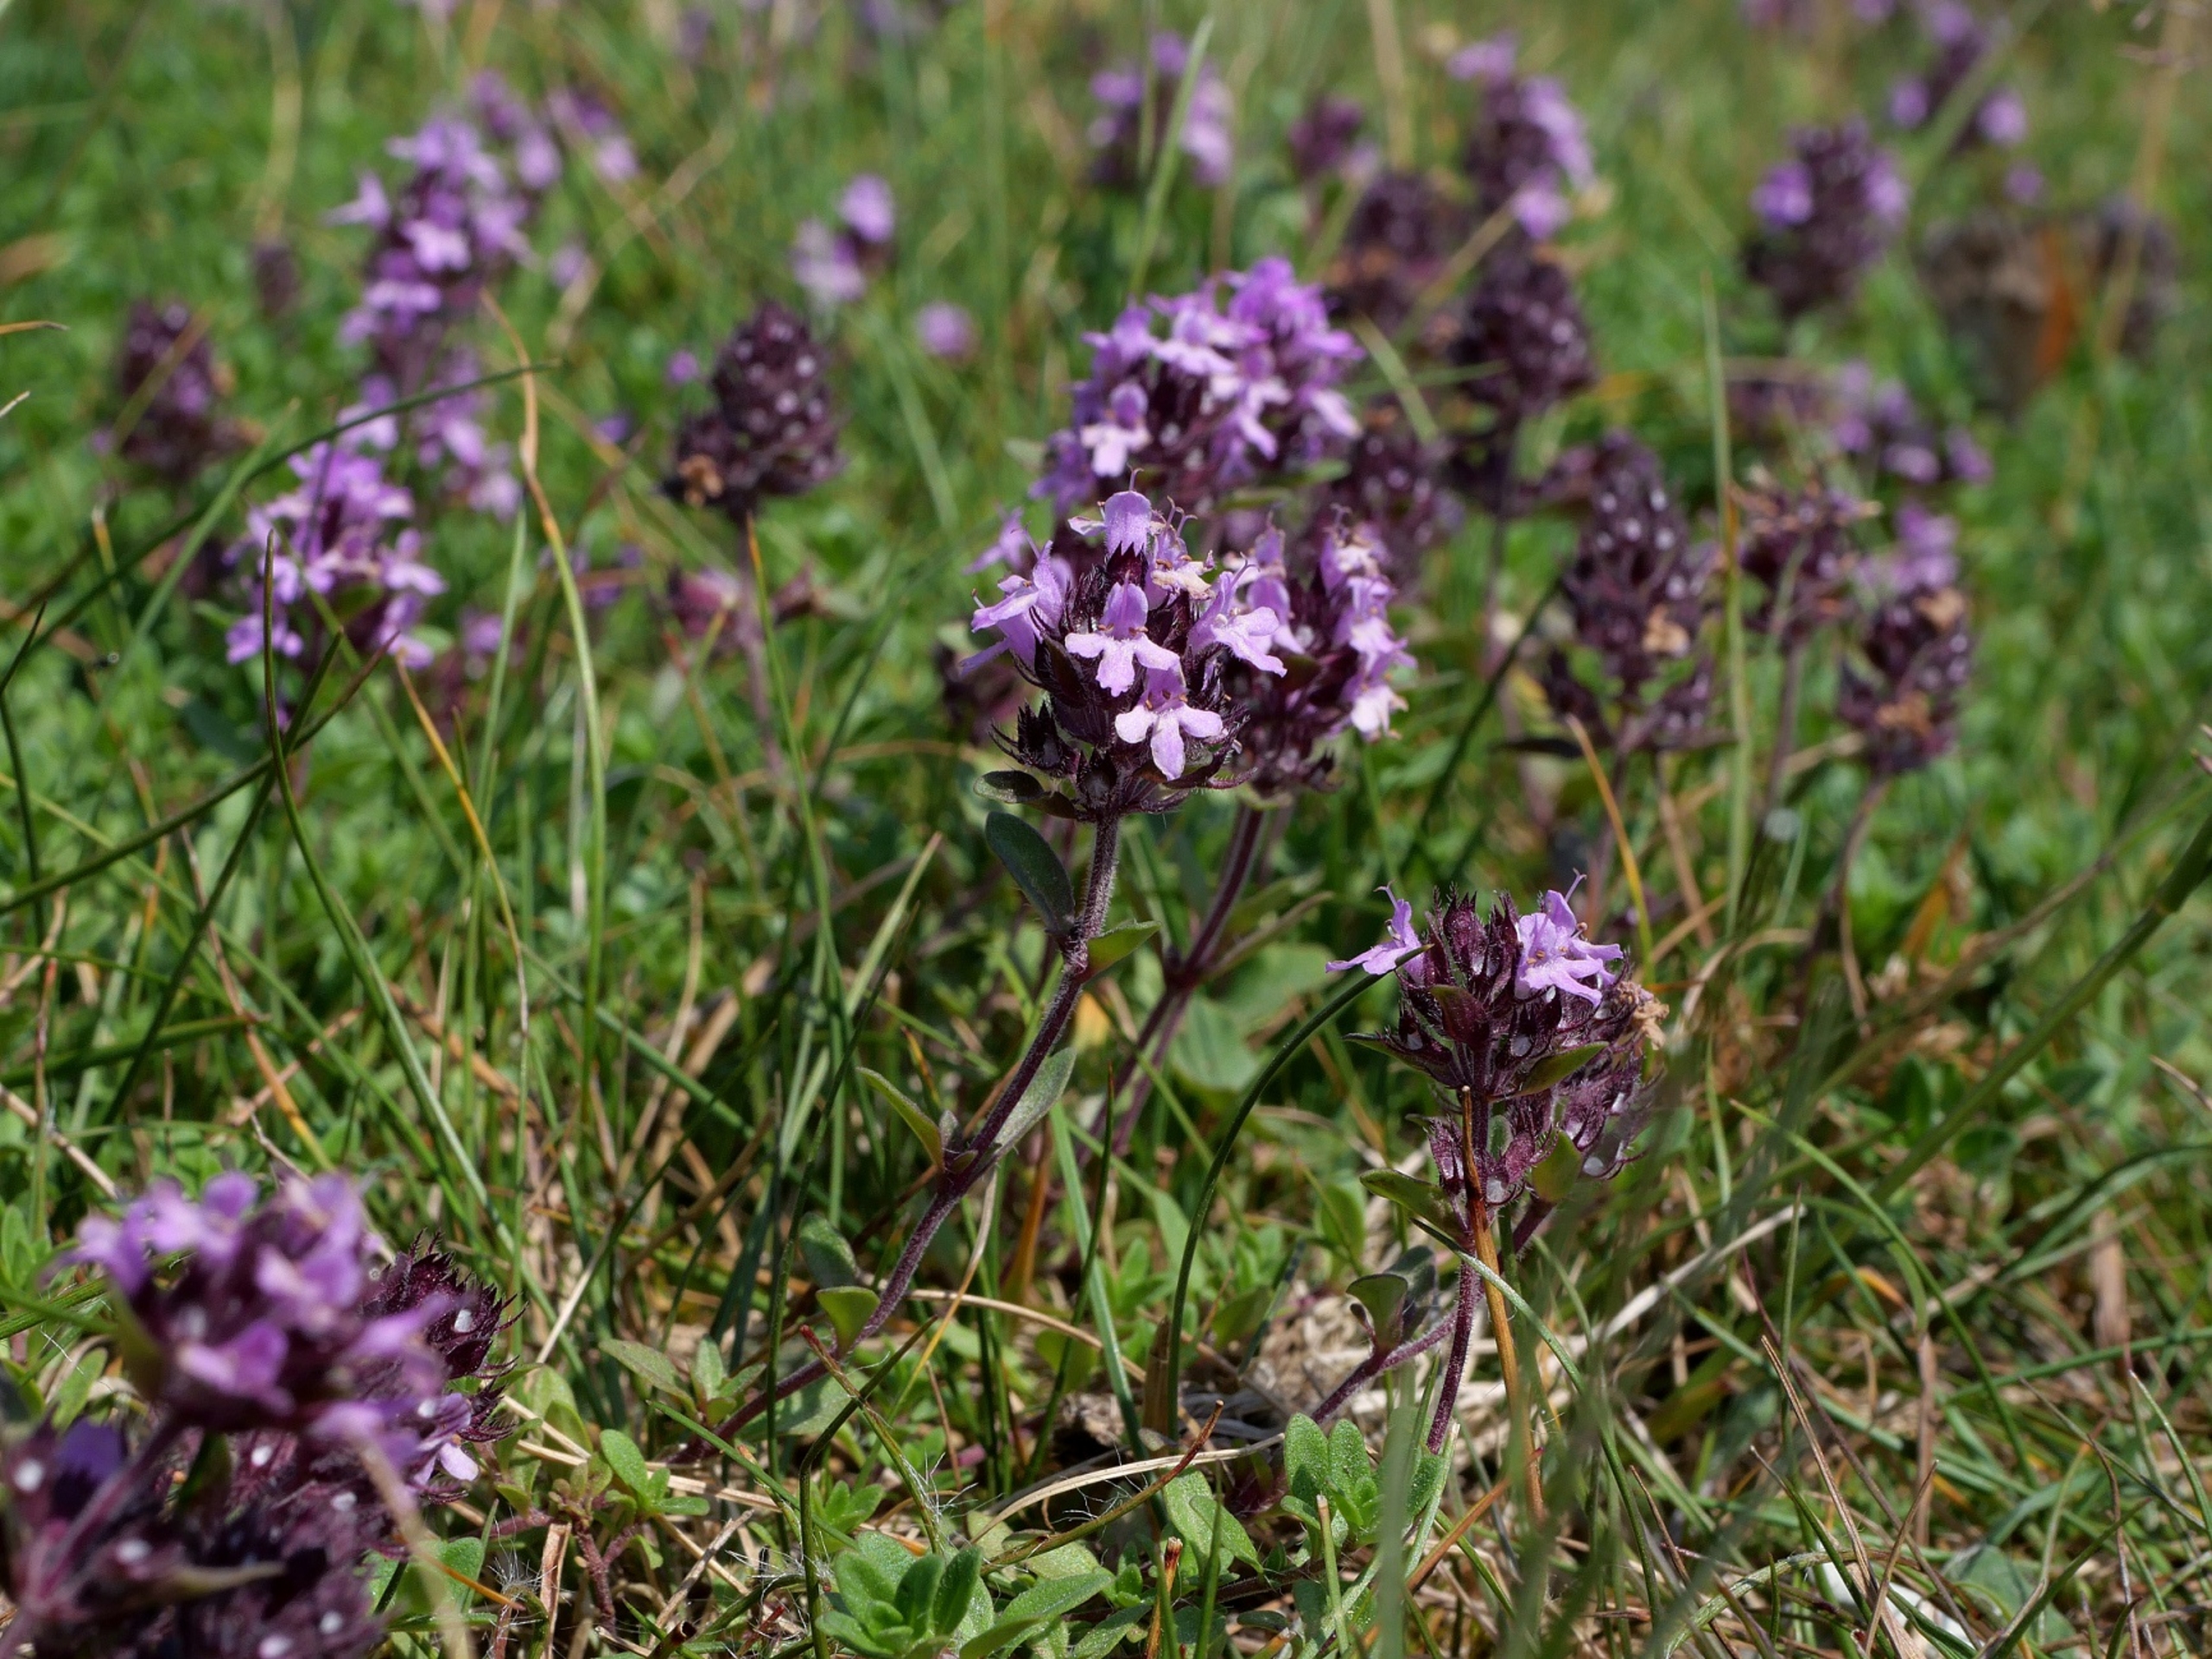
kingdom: Plantae
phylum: Tracheophyta
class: Magnoliopsida
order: Lamiales
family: Lamiaceae
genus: Thymus
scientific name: Thymus serpyllum
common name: Smalbladet timian
